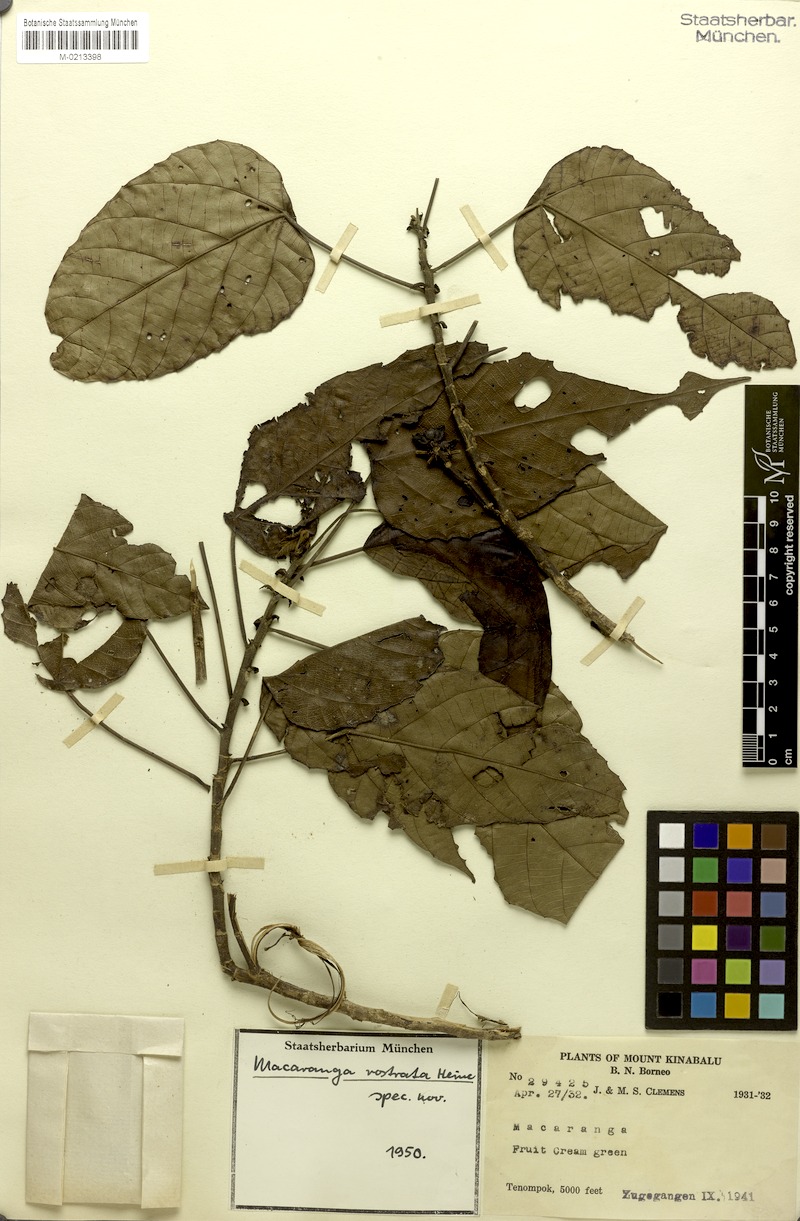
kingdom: Plantae
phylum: Tracheophyta
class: Magnoliopsida
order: Malpighiales
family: Euphorbiaceae
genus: Macaranga
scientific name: Macaranga rostrata
